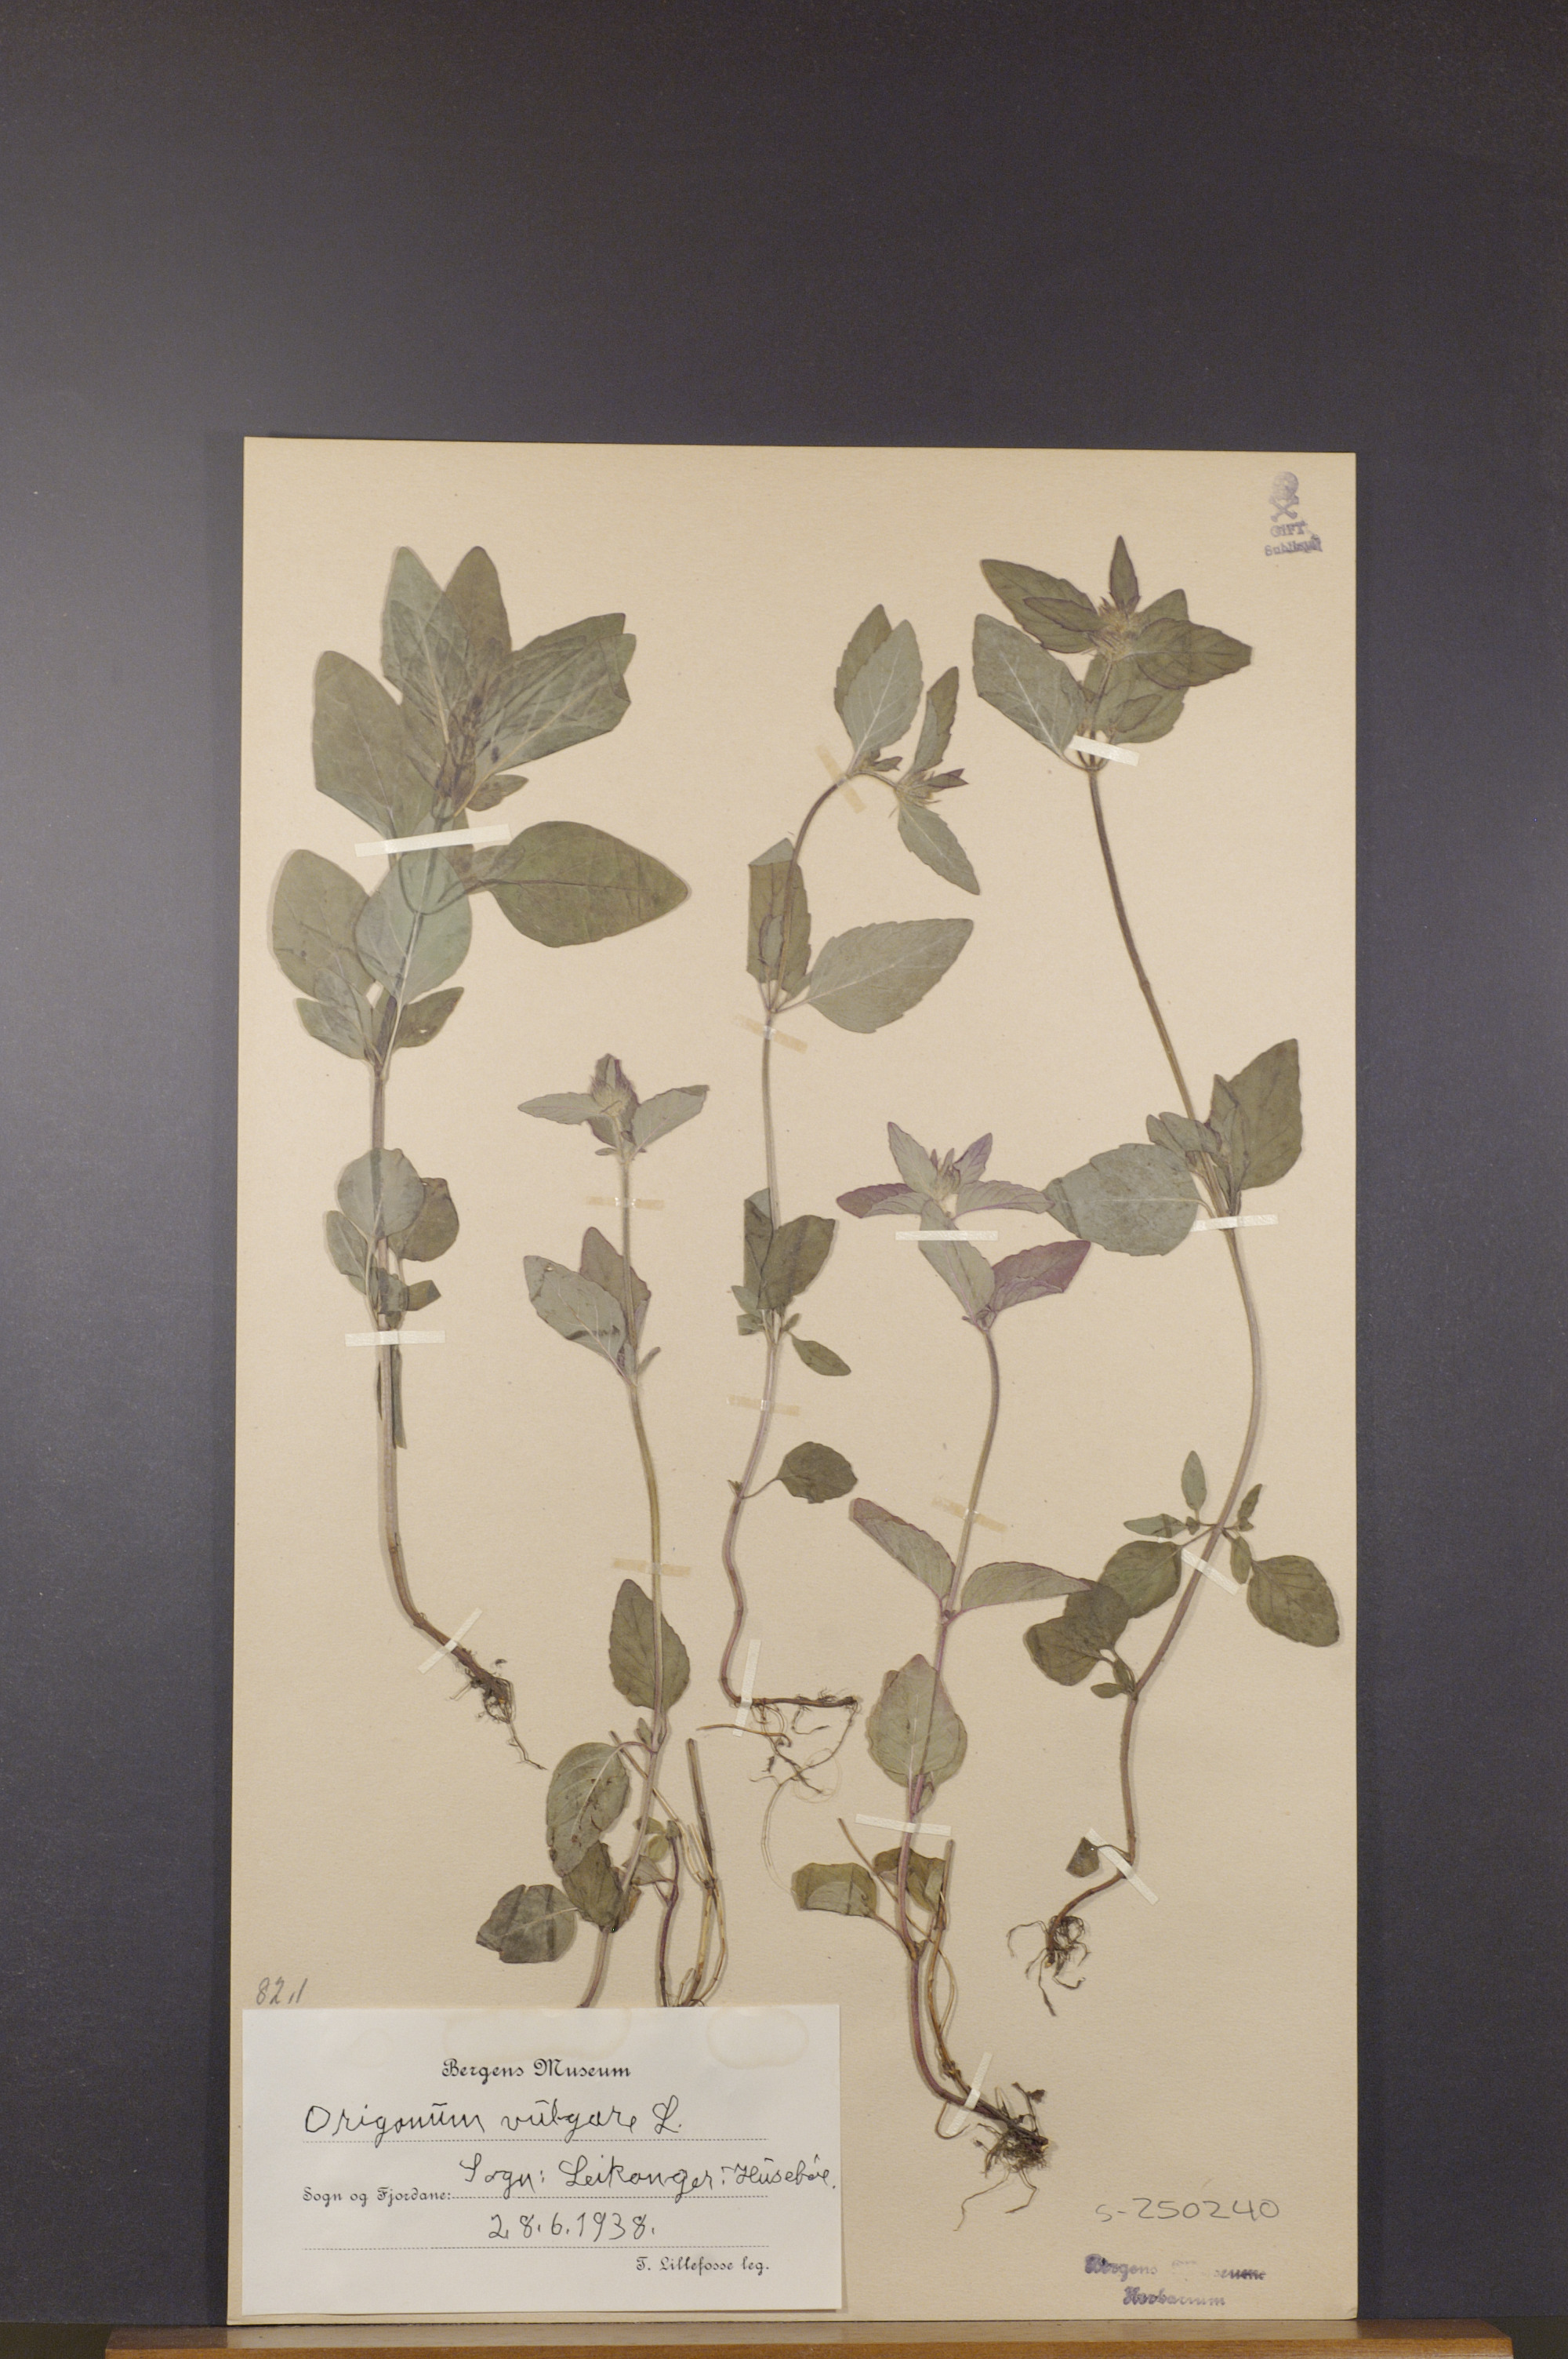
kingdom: Plantae
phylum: Tracheophyta
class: Magnoliopsida
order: Lamiales
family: Lamiaceae
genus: Origanum
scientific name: Origanum vulgare
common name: Wild marjoram
